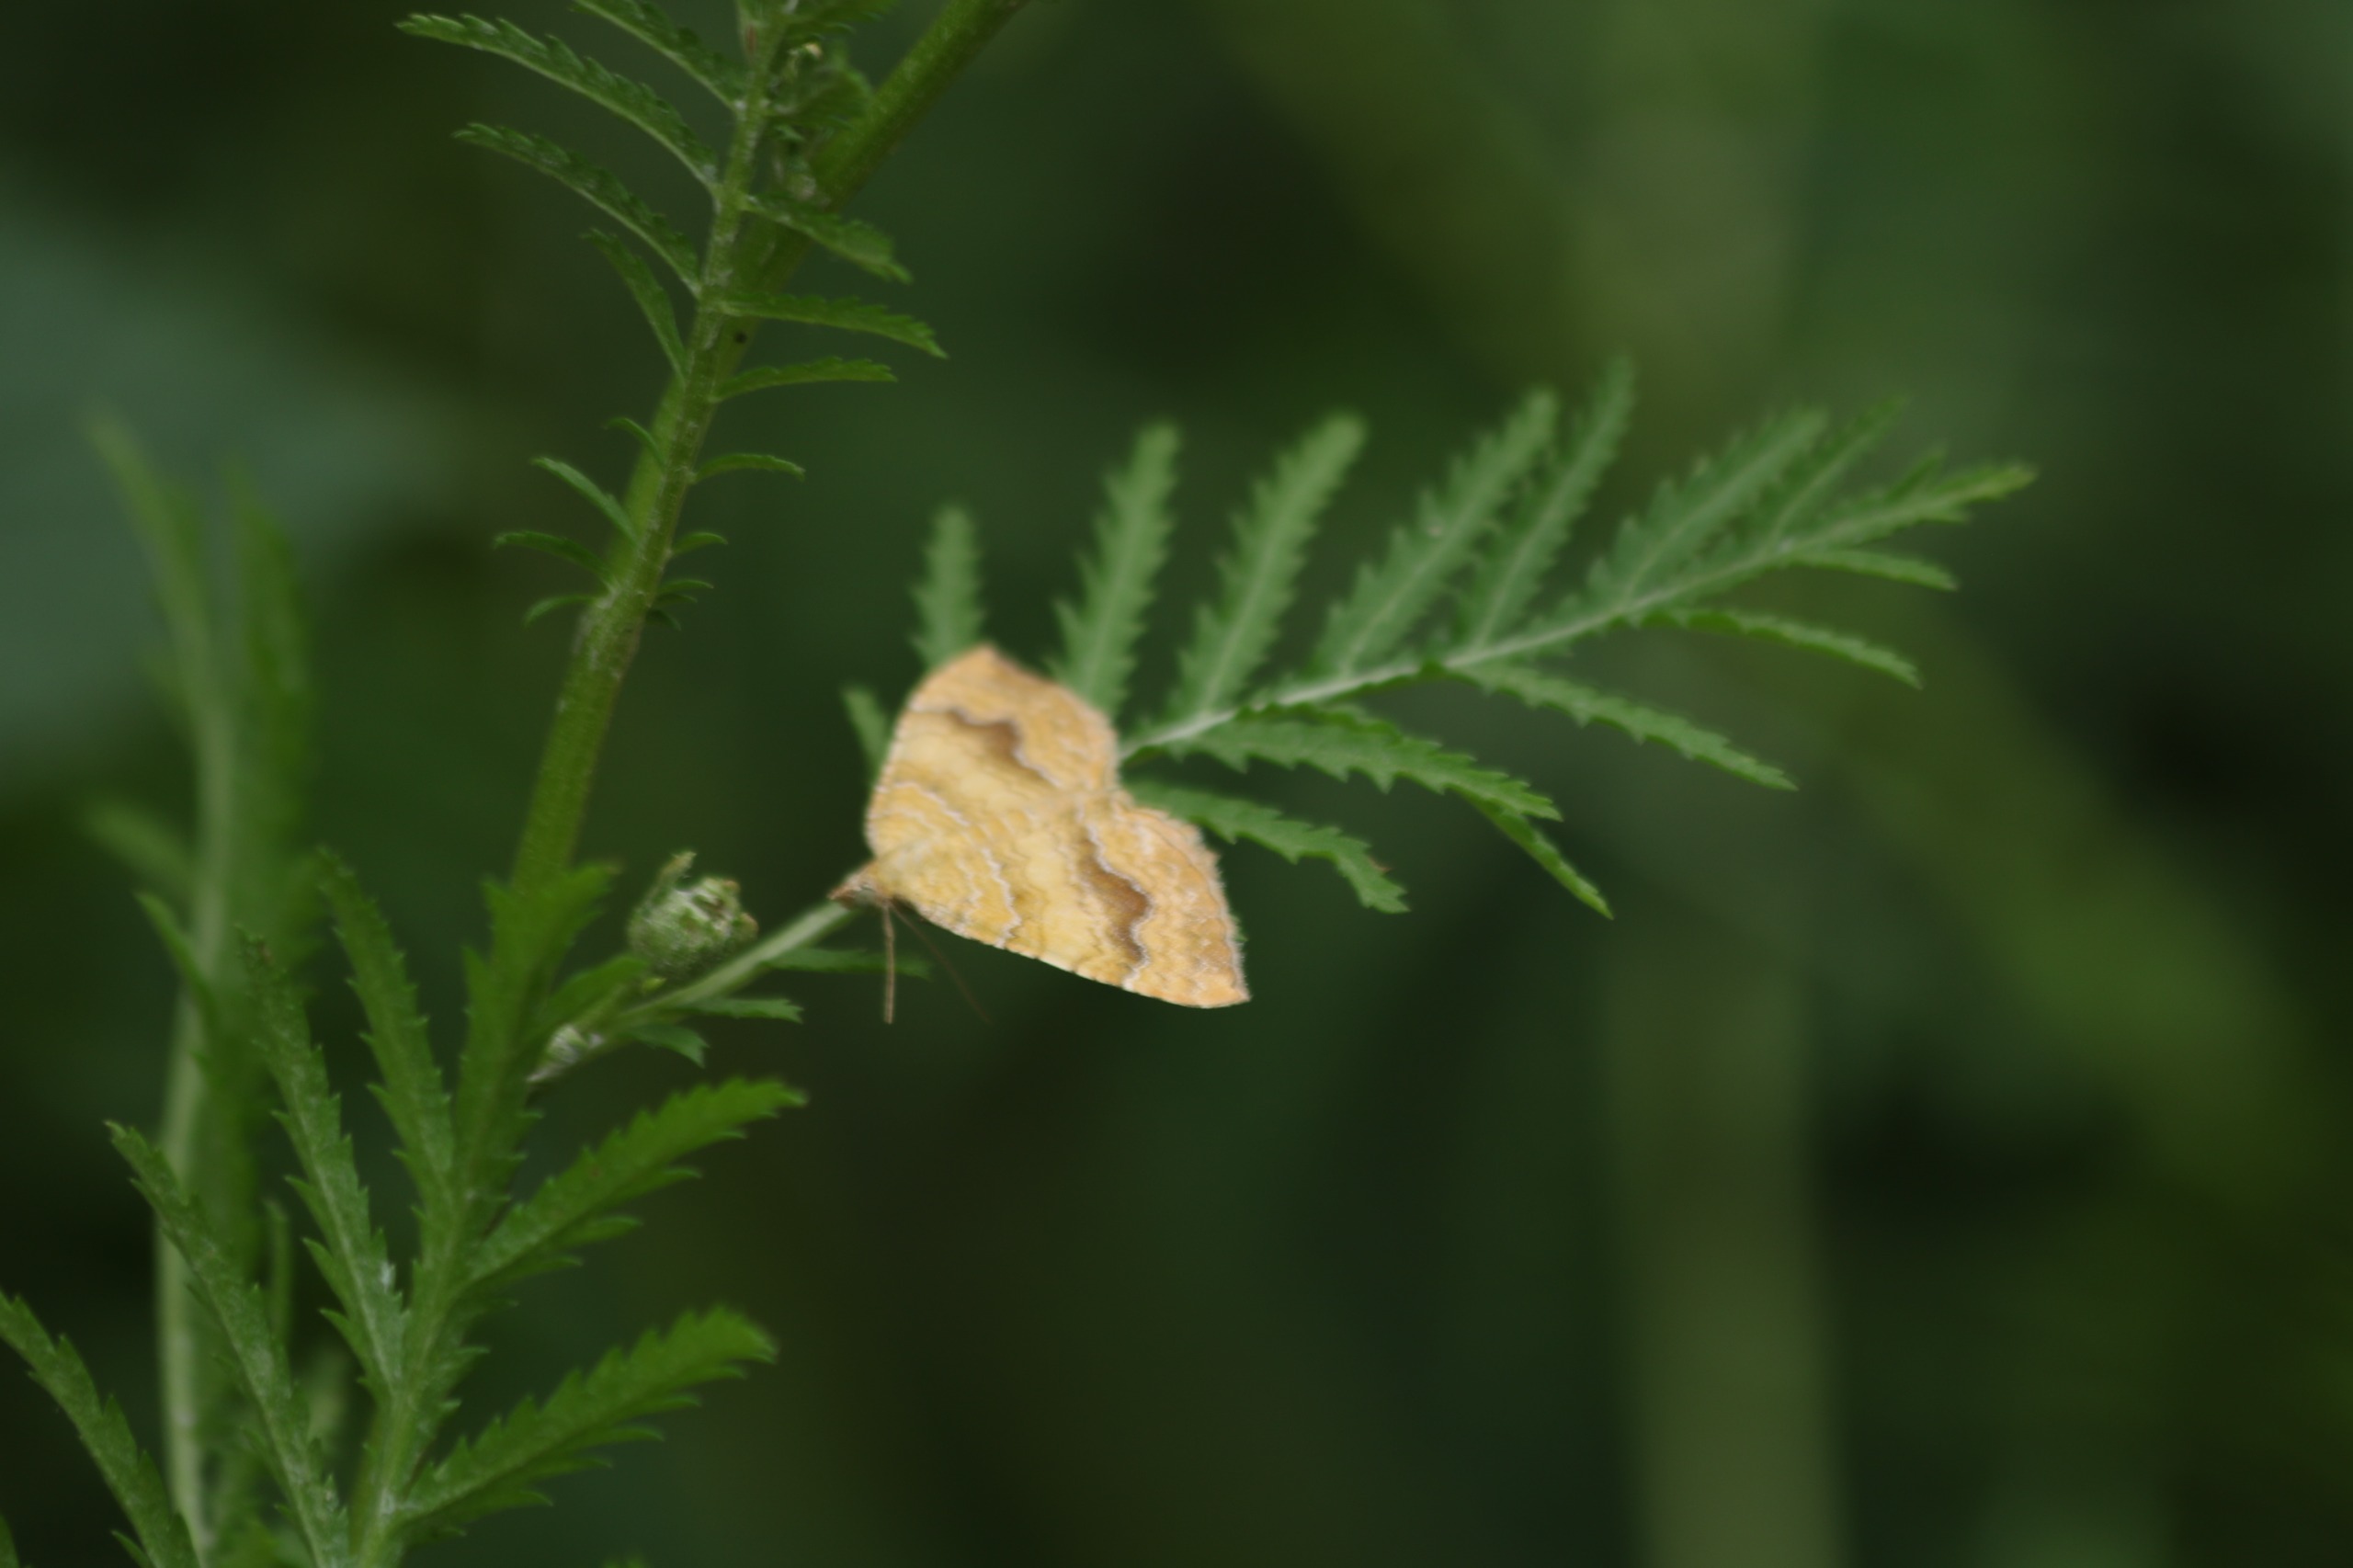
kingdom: Animalia
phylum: Arthropoda
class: Insecta
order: Lepidoptera
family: Geometridae
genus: Camptogramma
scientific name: Camptogramma bilineata
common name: Okkergul bladmåler
